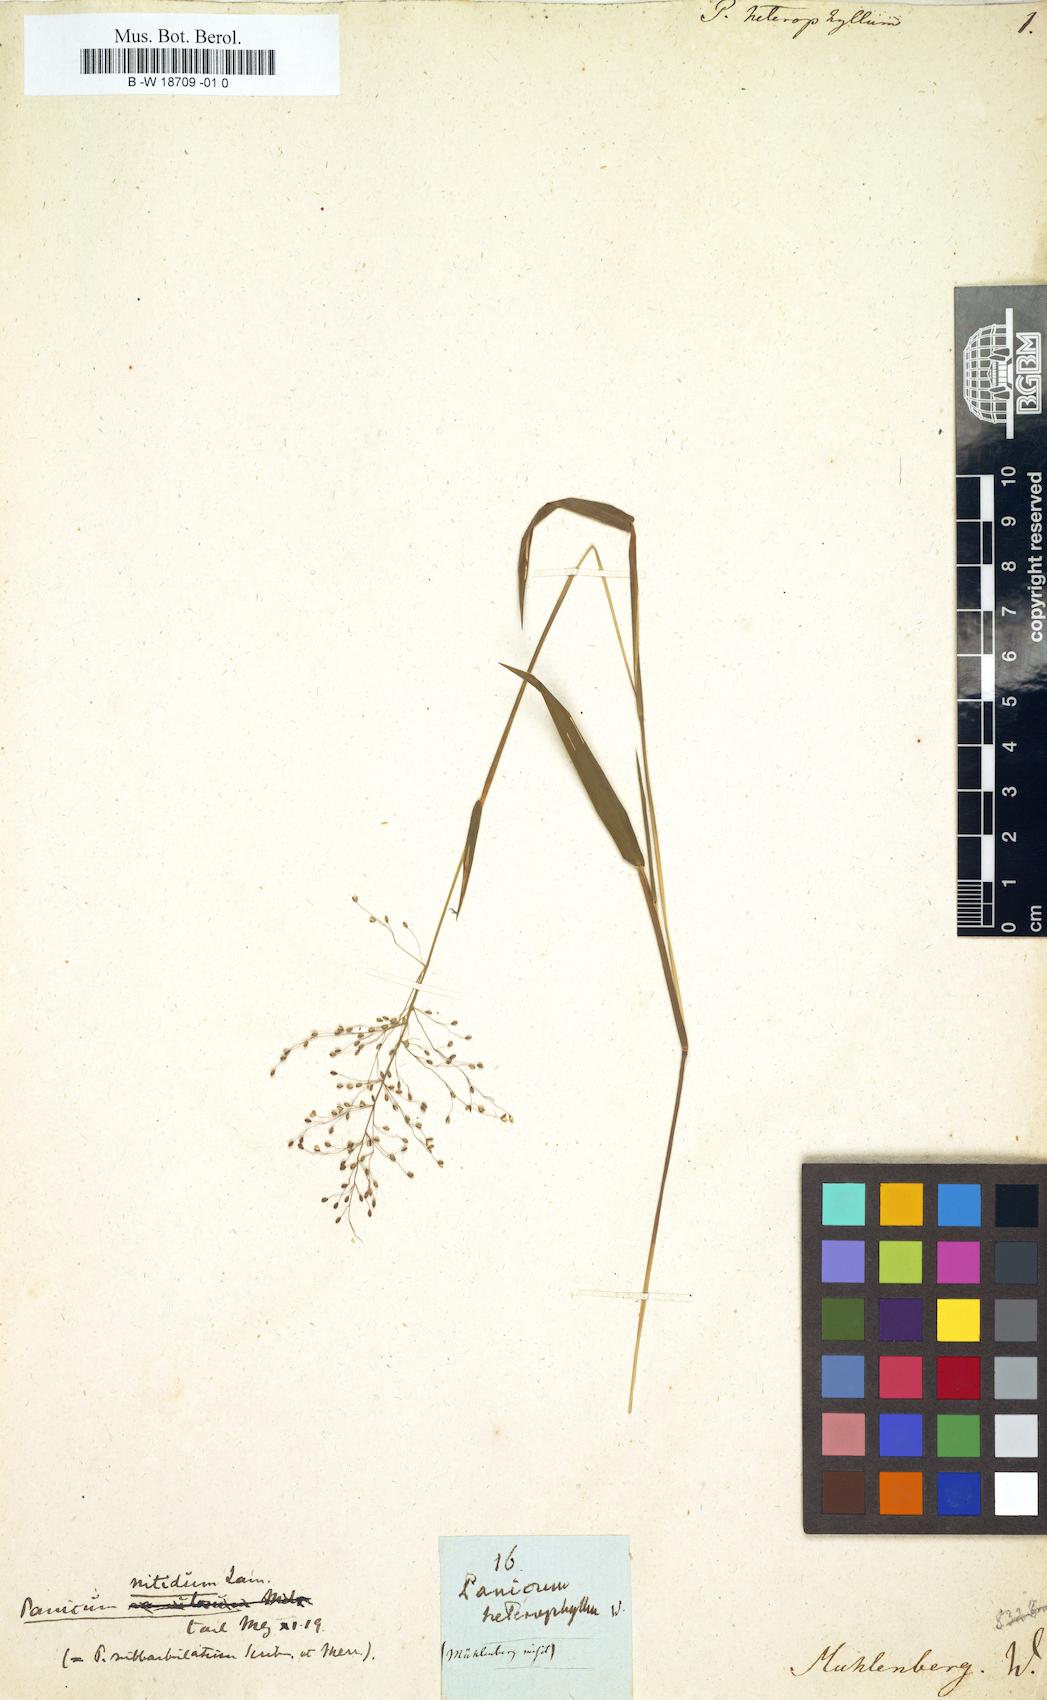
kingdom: Plantae
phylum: Tracheophyta
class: Liliopsida
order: Poales
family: Poaceae
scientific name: Poaceae
